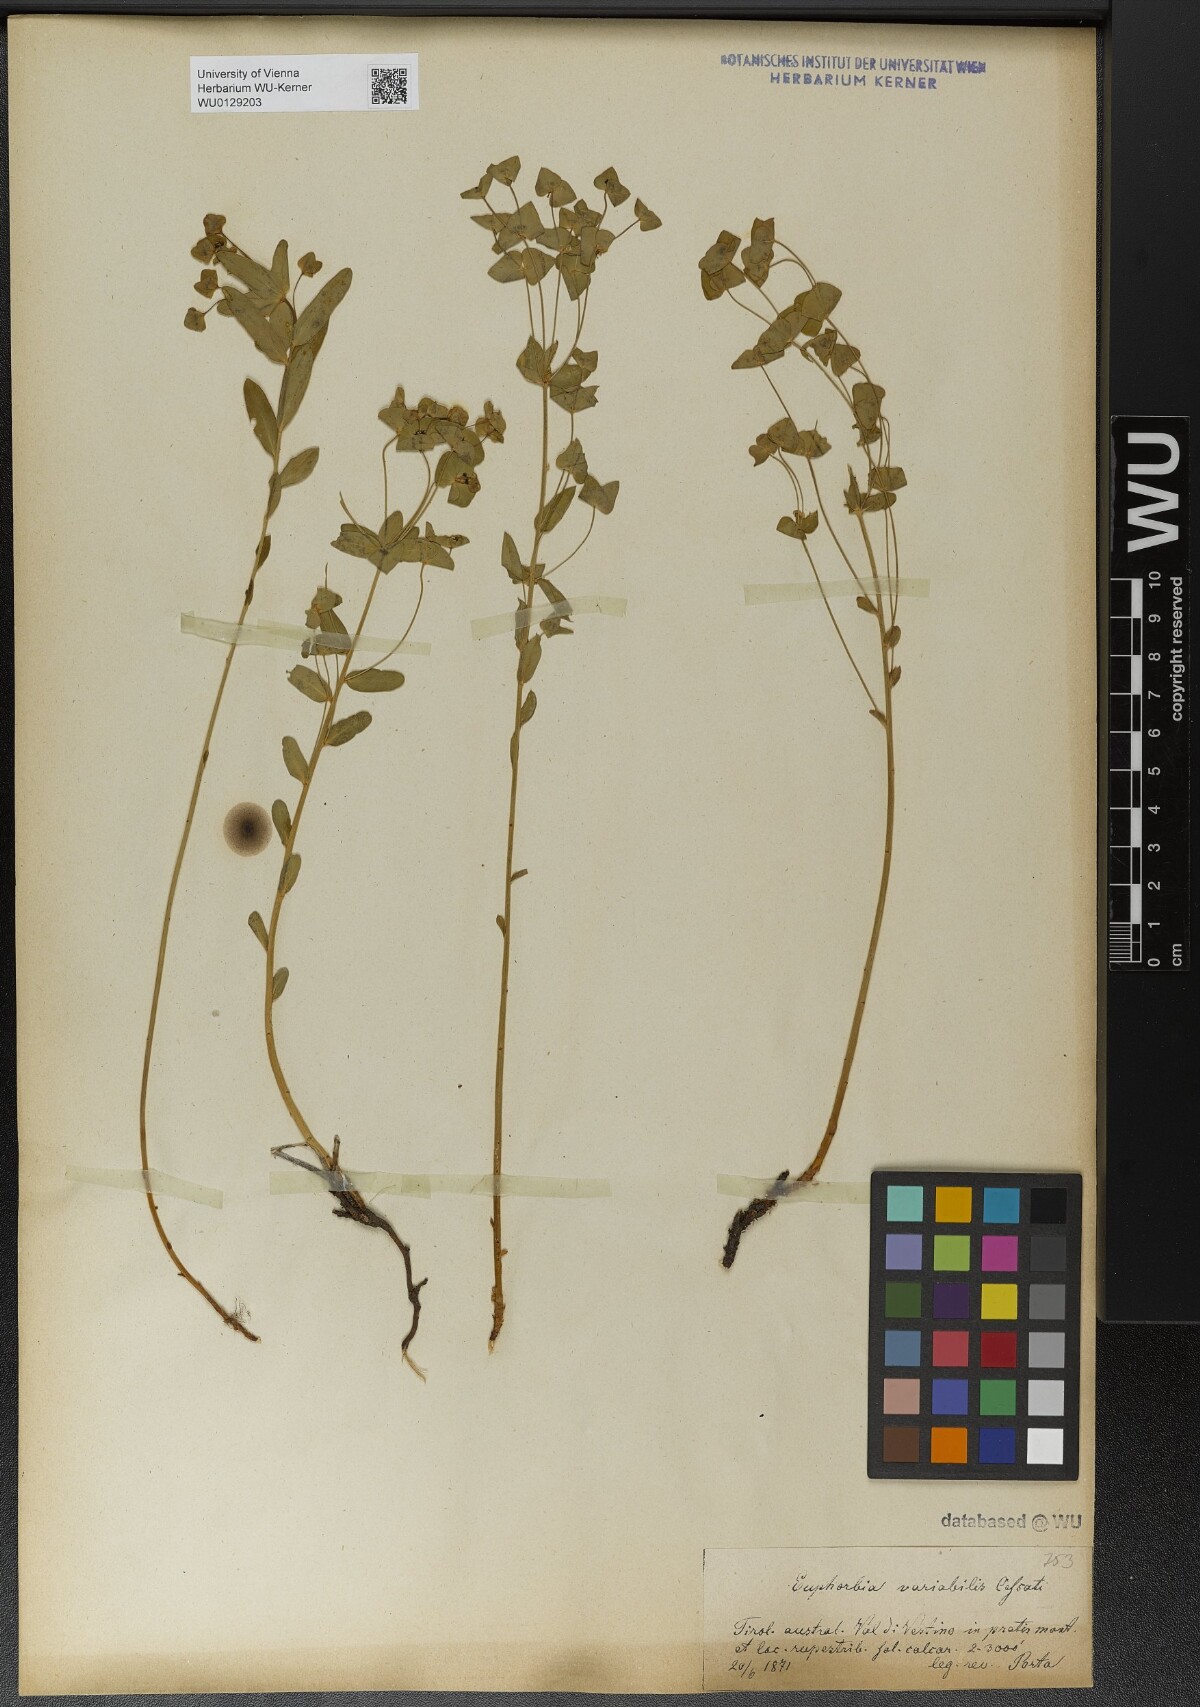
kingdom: Plantae
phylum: Tracheophyta
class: Magnoliopsida
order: Malpighiales
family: Euphorbiaceae
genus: Euphorbia
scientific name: Euphorbia variabilis
